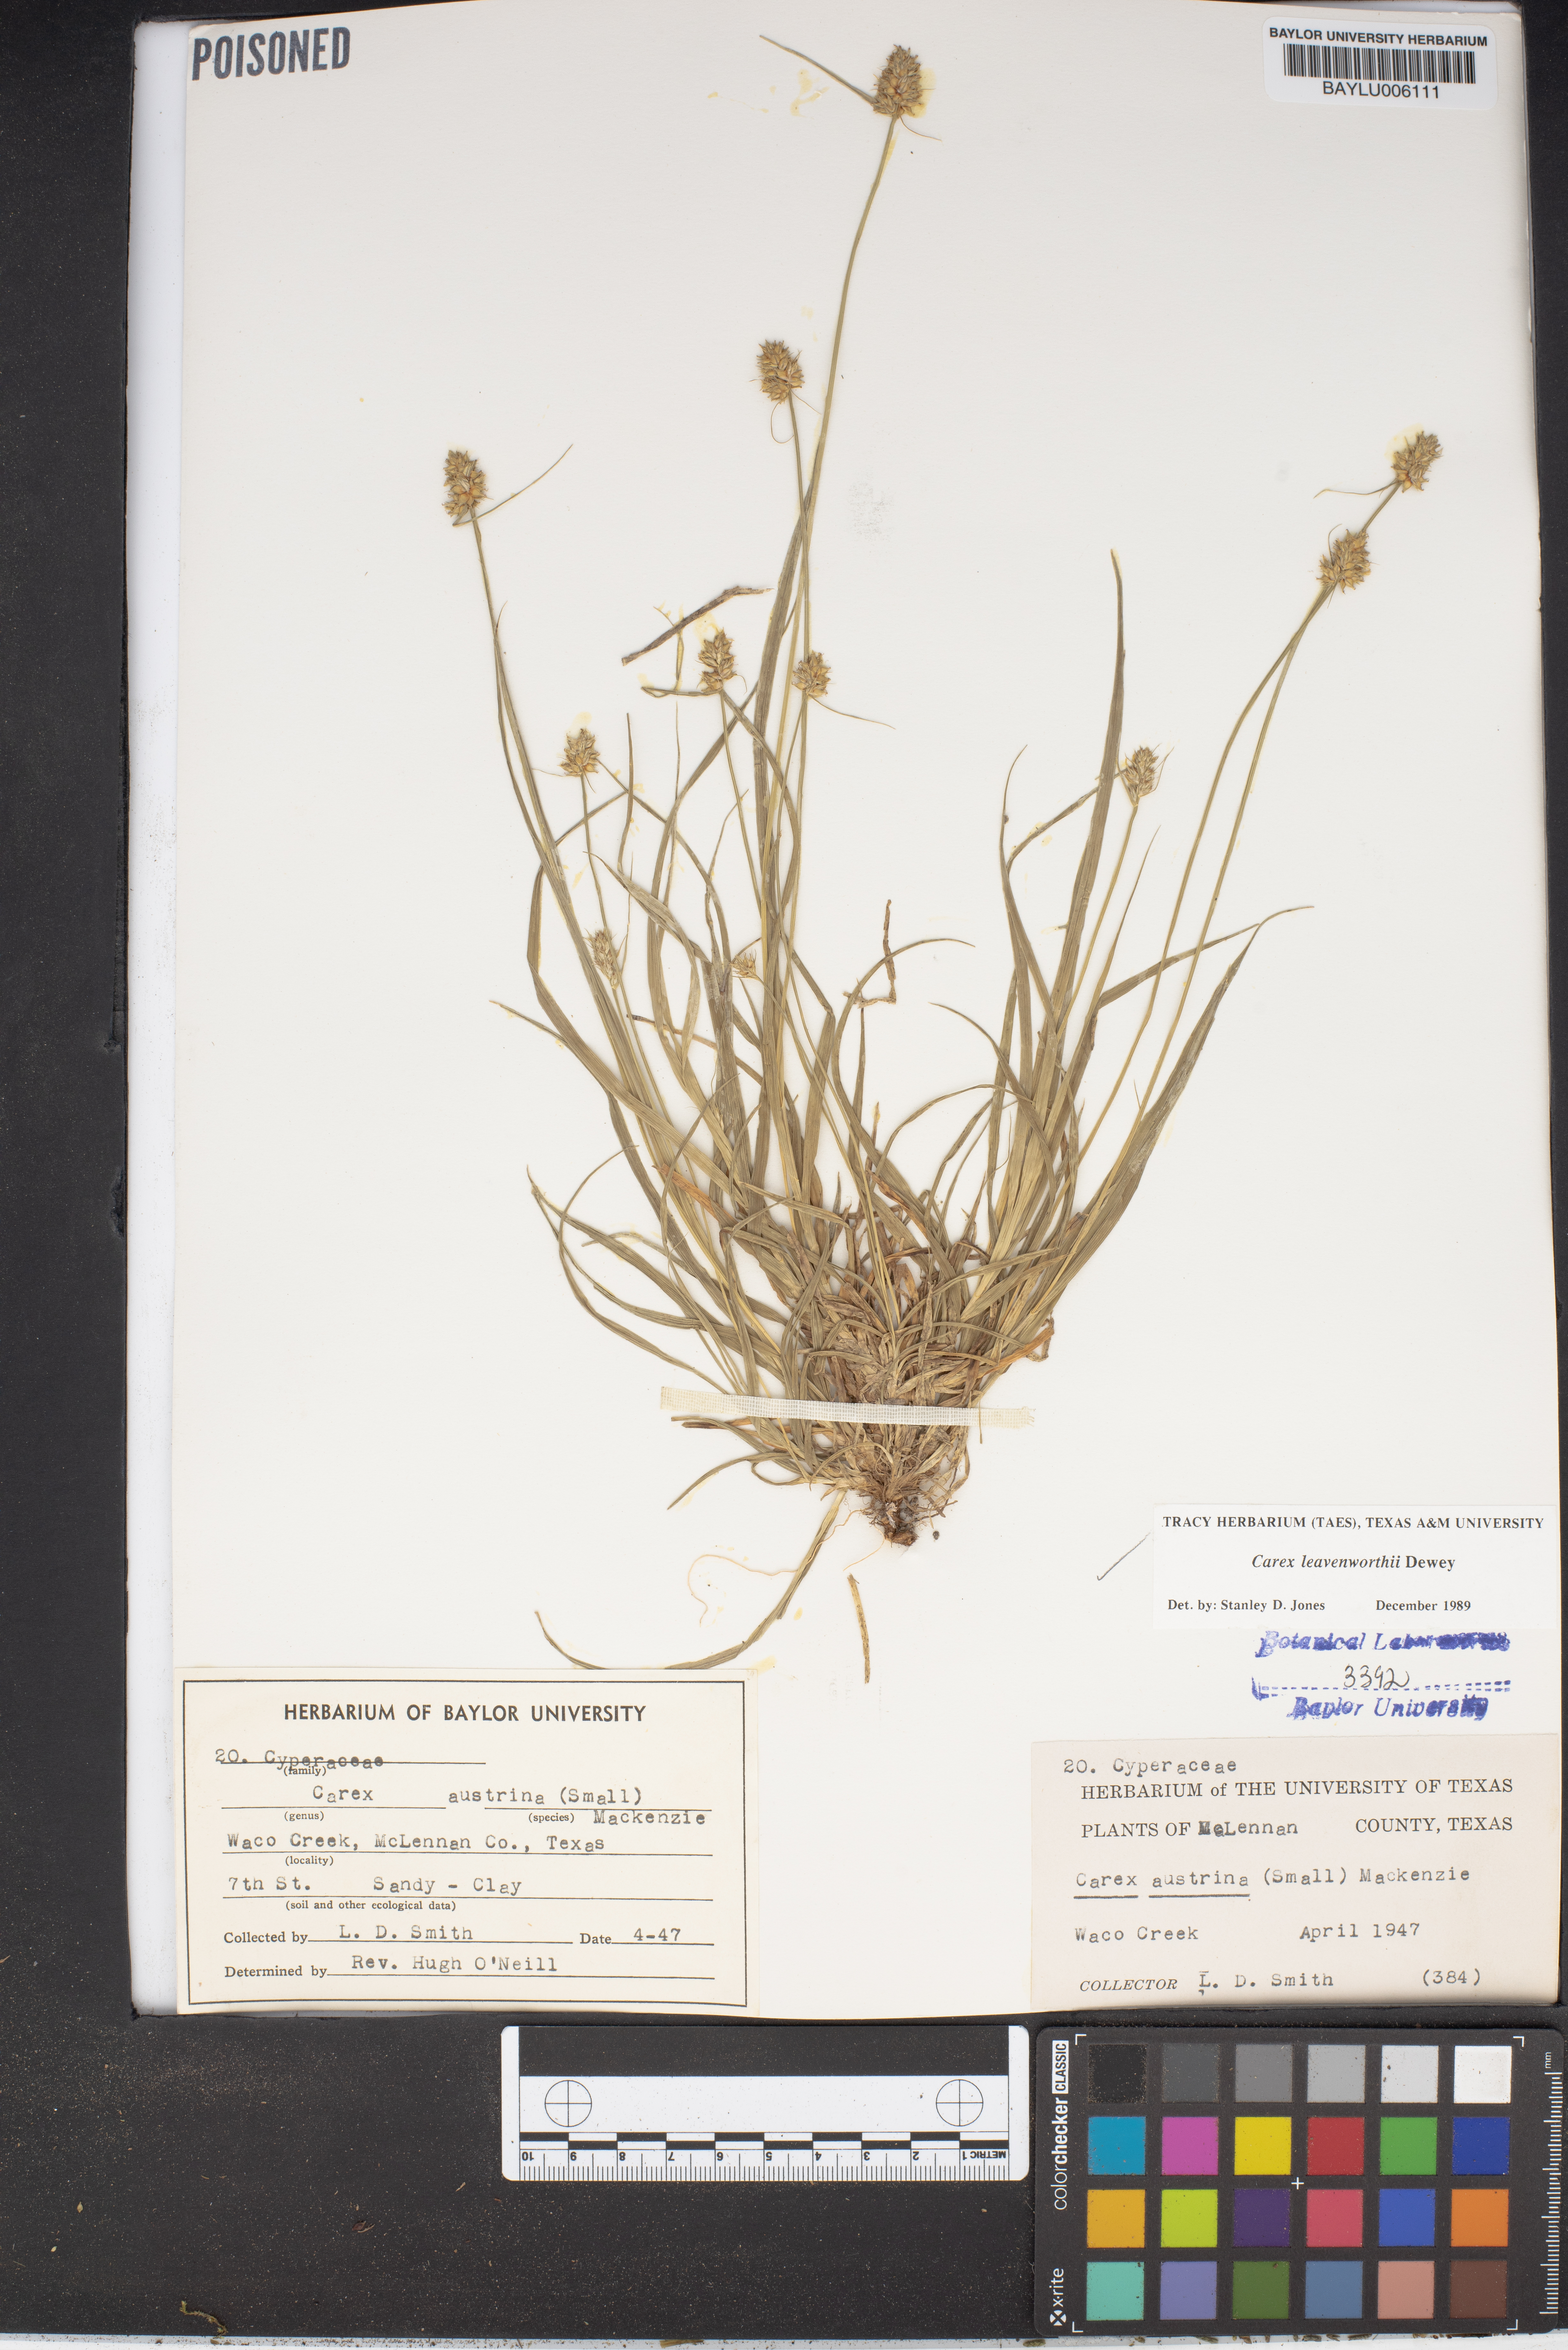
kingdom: Plantae
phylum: Tracheophyta
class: Liliopsida
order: Poales
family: Cyperaceae
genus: Carex
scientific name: Carex leavenworthii
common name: Leavenworth's bracted sedge
